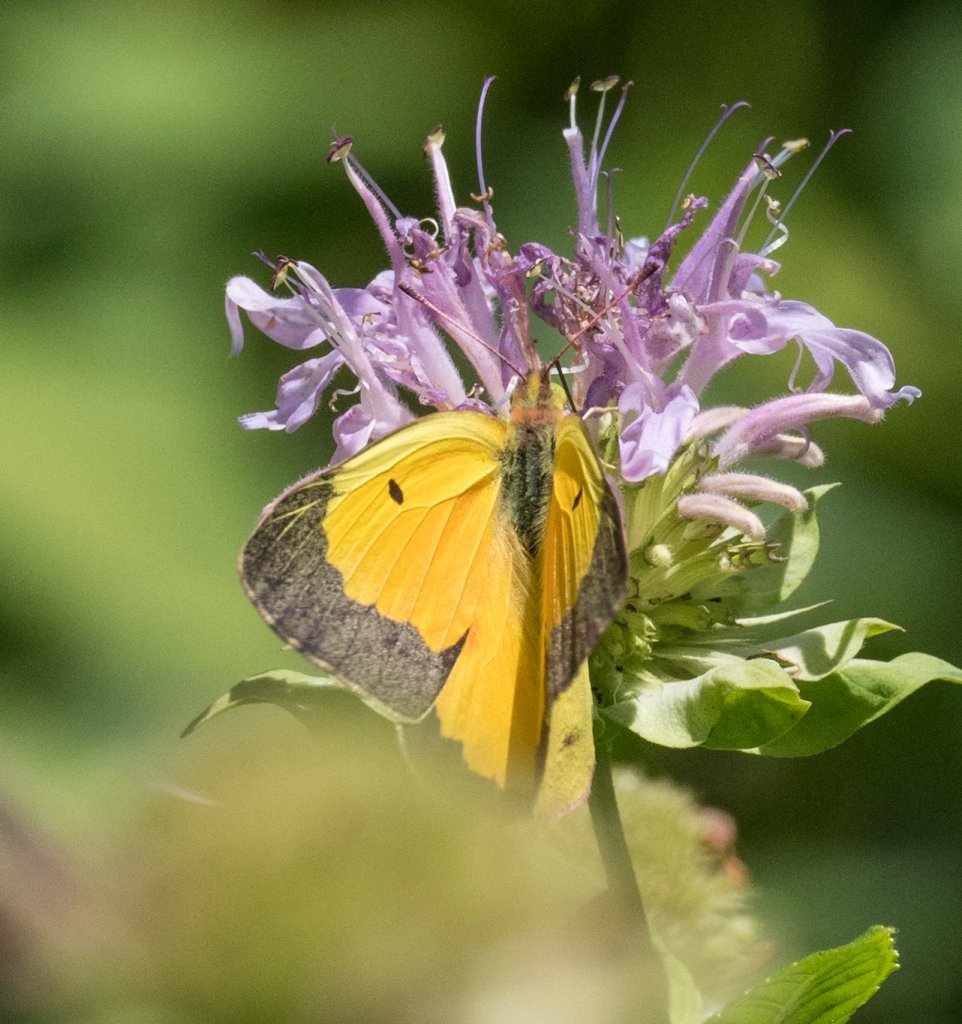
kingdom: Animalia
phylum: Arthropoda
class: Insecta
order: Lepidoptera
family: Pieridae
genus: Colias
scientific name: Colias eurytheme
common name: Orange Sulphur
